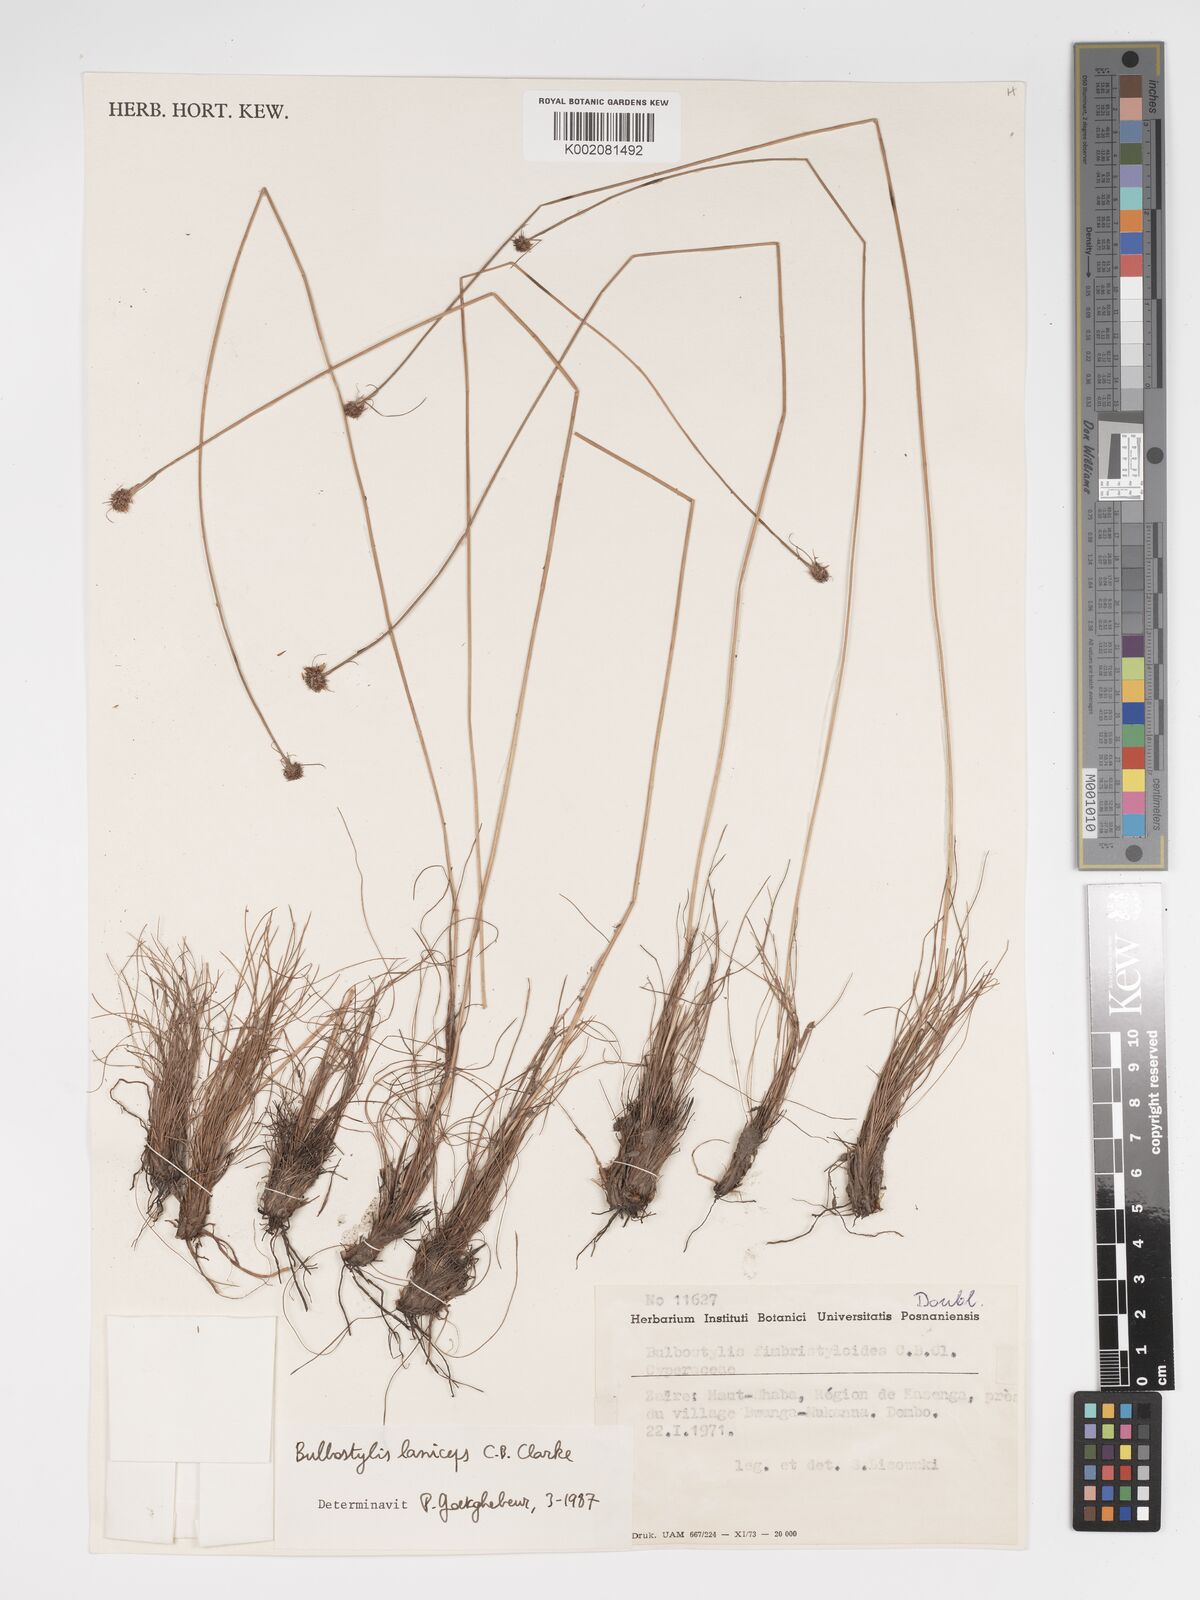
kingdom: Plantae
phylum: Tracheophyta
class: Liliopsida
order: Poales
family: Cyperaceae
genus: Bulbostylis
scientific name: Bulbostylis laniceps
